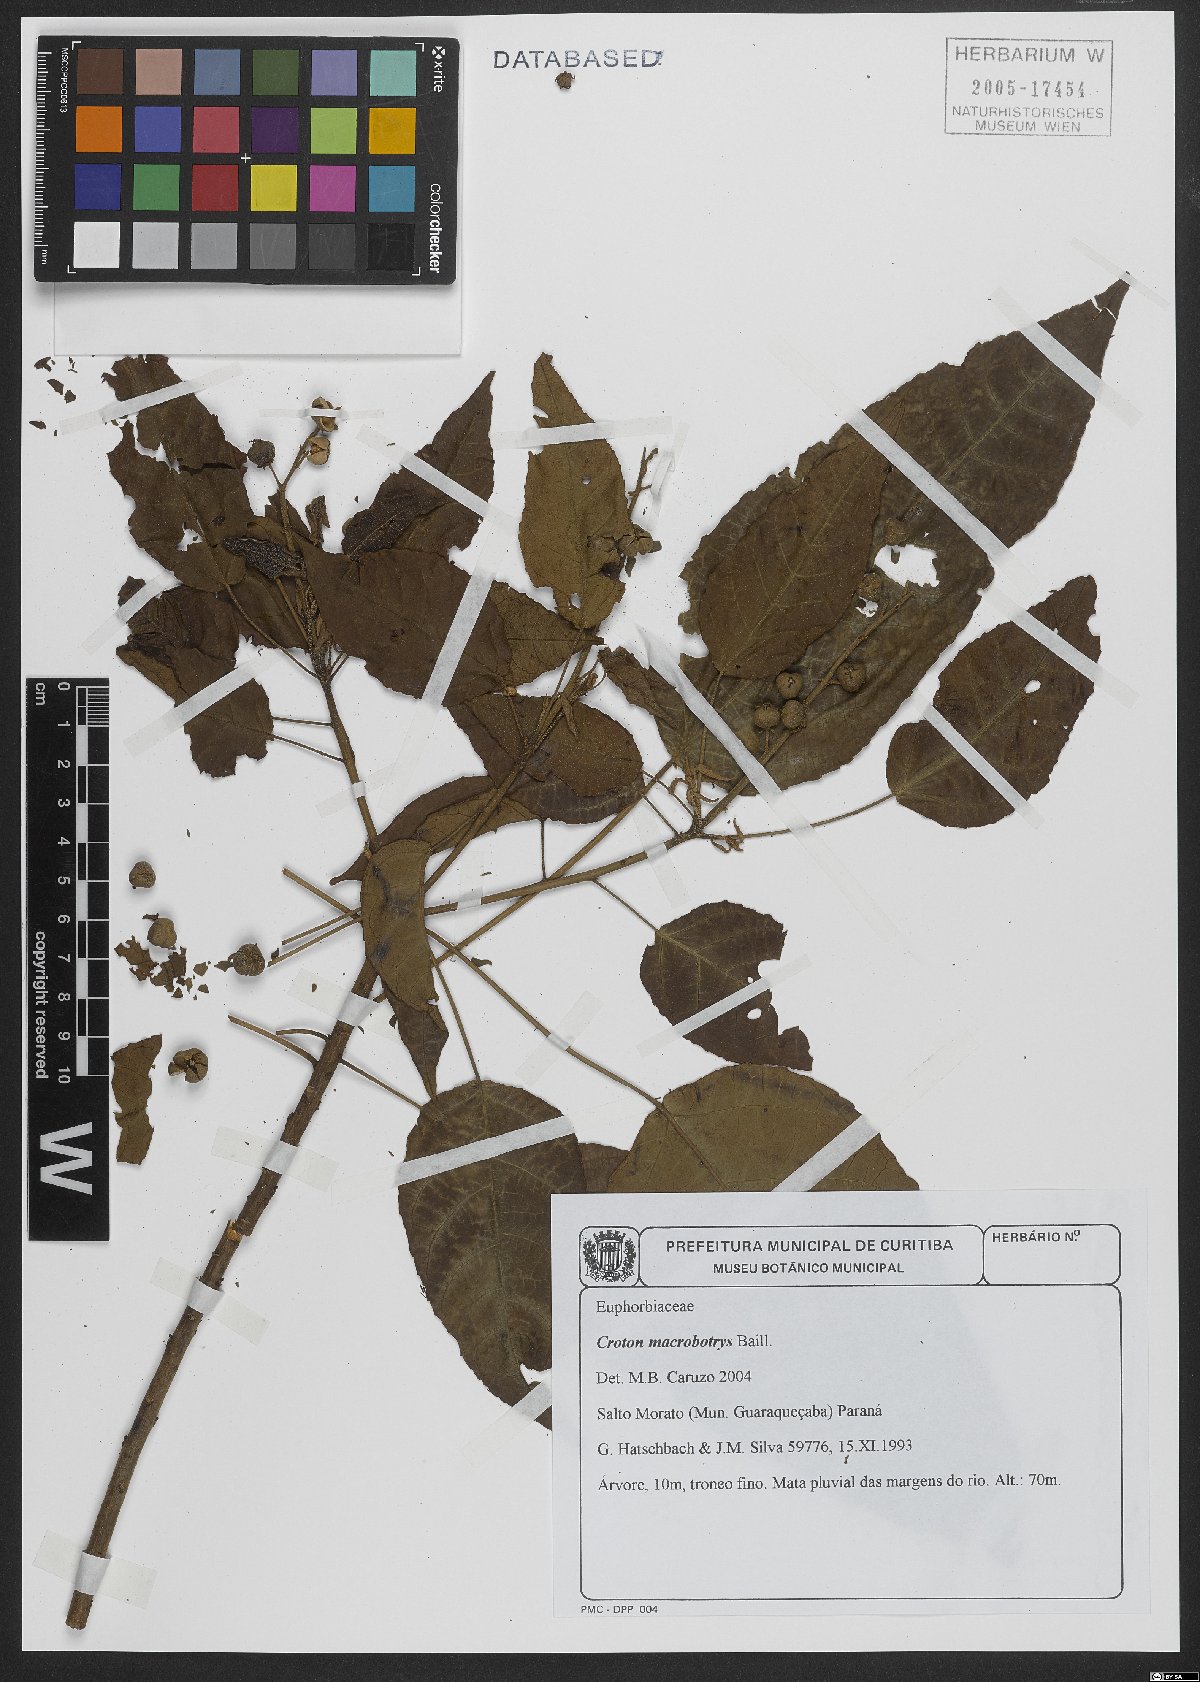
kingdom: Plantae
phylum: Tracheophyta
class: Magnoliopsida
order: Malpighiales
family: Euphorbiaceae
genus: Croton
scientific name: Croton macrobothrys
